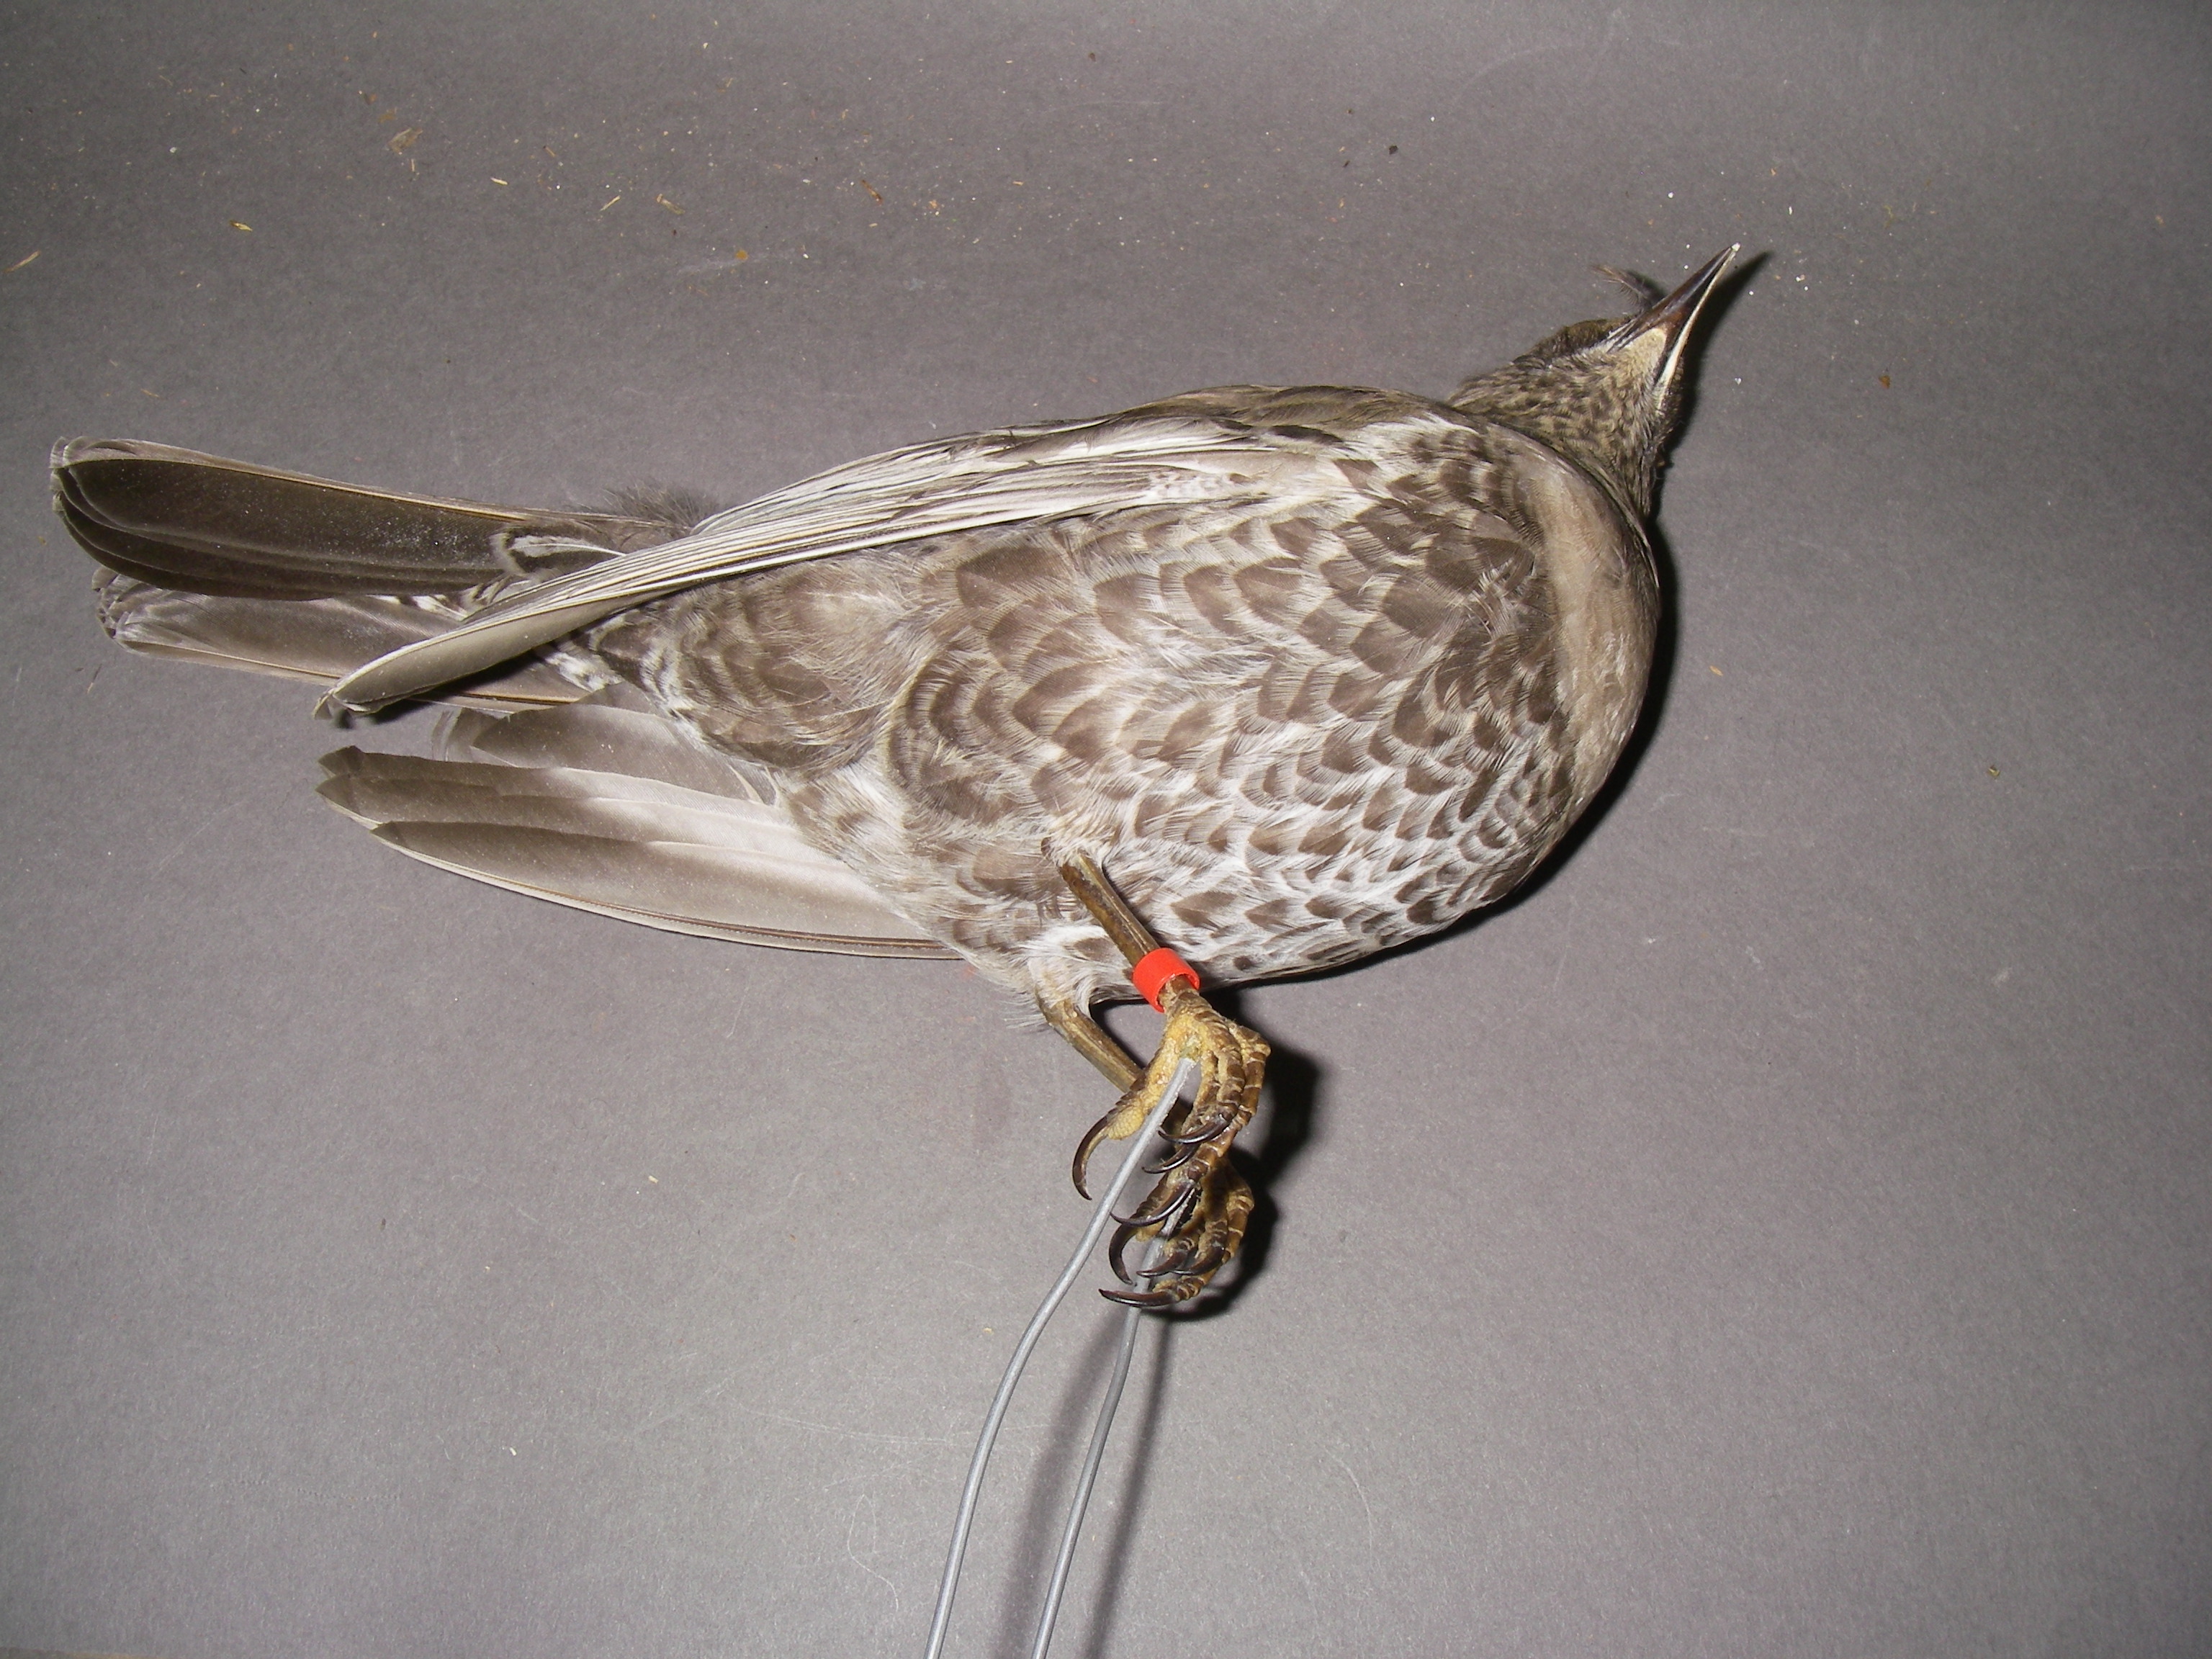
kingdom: Animalia
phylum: Chordata
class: Aves
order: Passeriformes
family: Turdidae
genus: Turdus
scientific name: Turdus torquatus
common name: Ring ouzel
